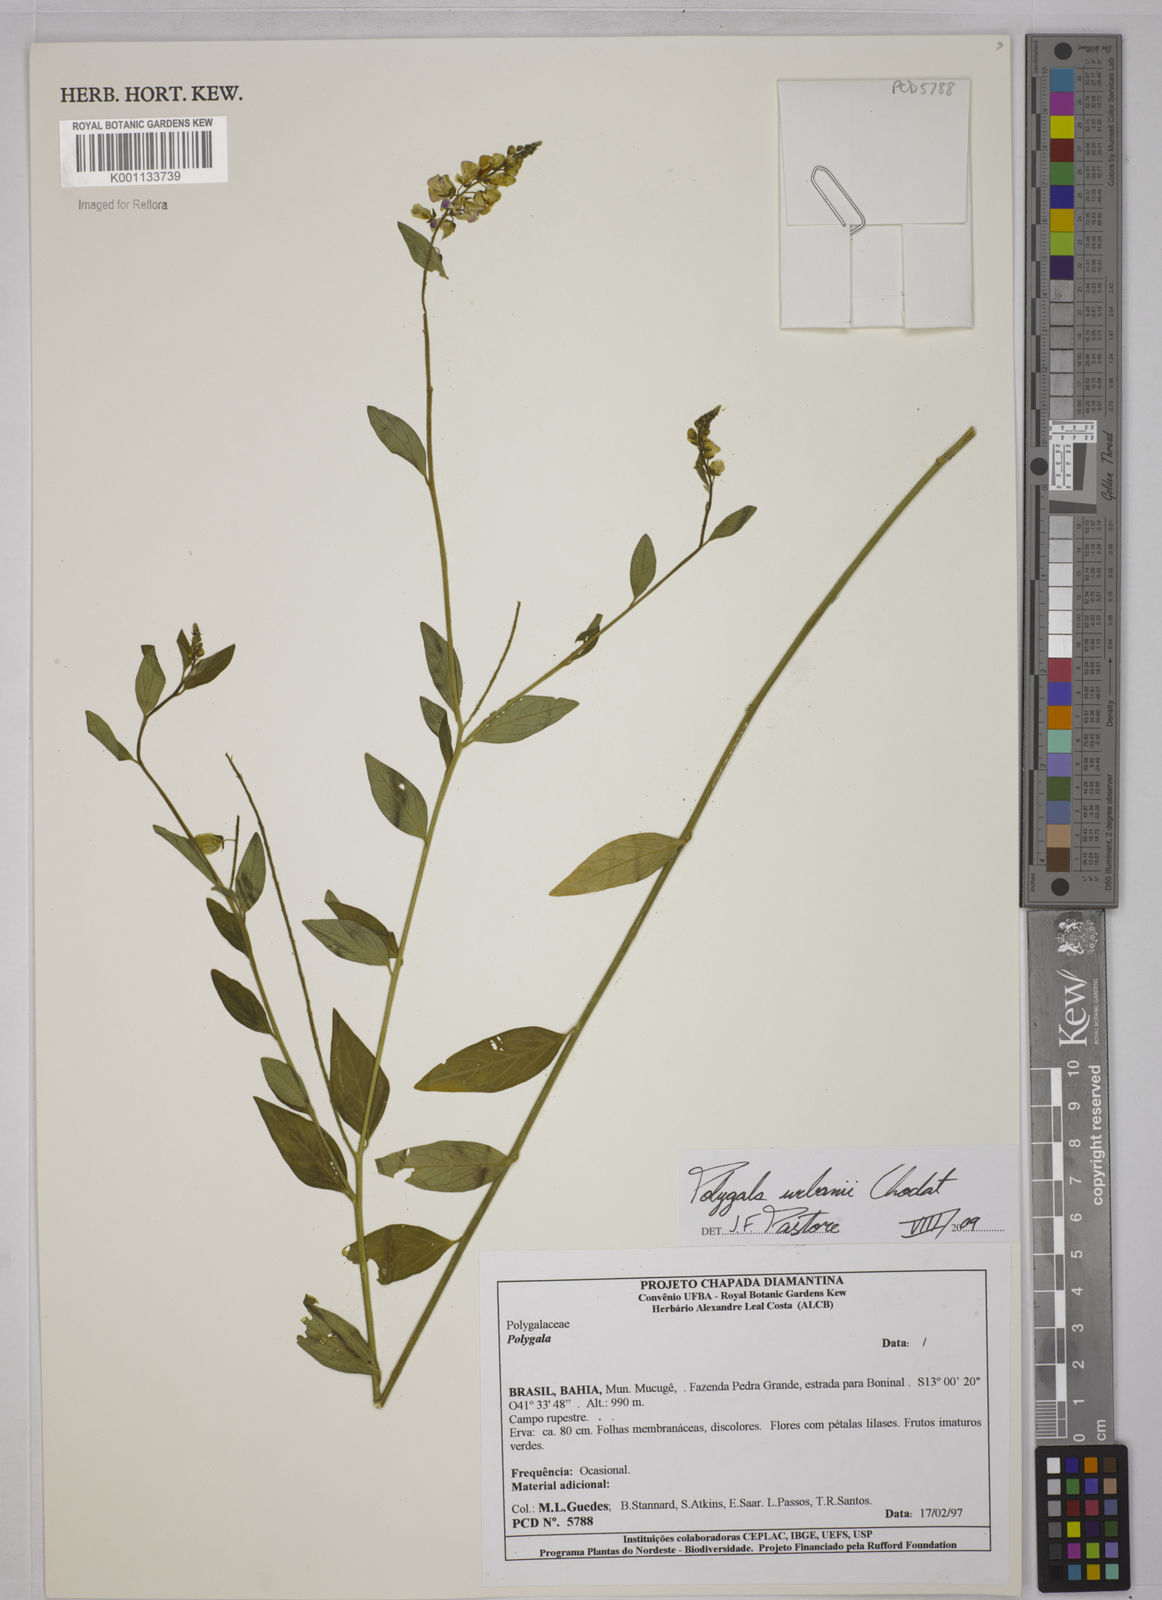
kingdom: Plantae
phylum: Tracheophyta
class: Magnoliopsida
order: Fabales
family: Polygalaceae
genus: Asemeia
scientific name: Asemeia monninoides
